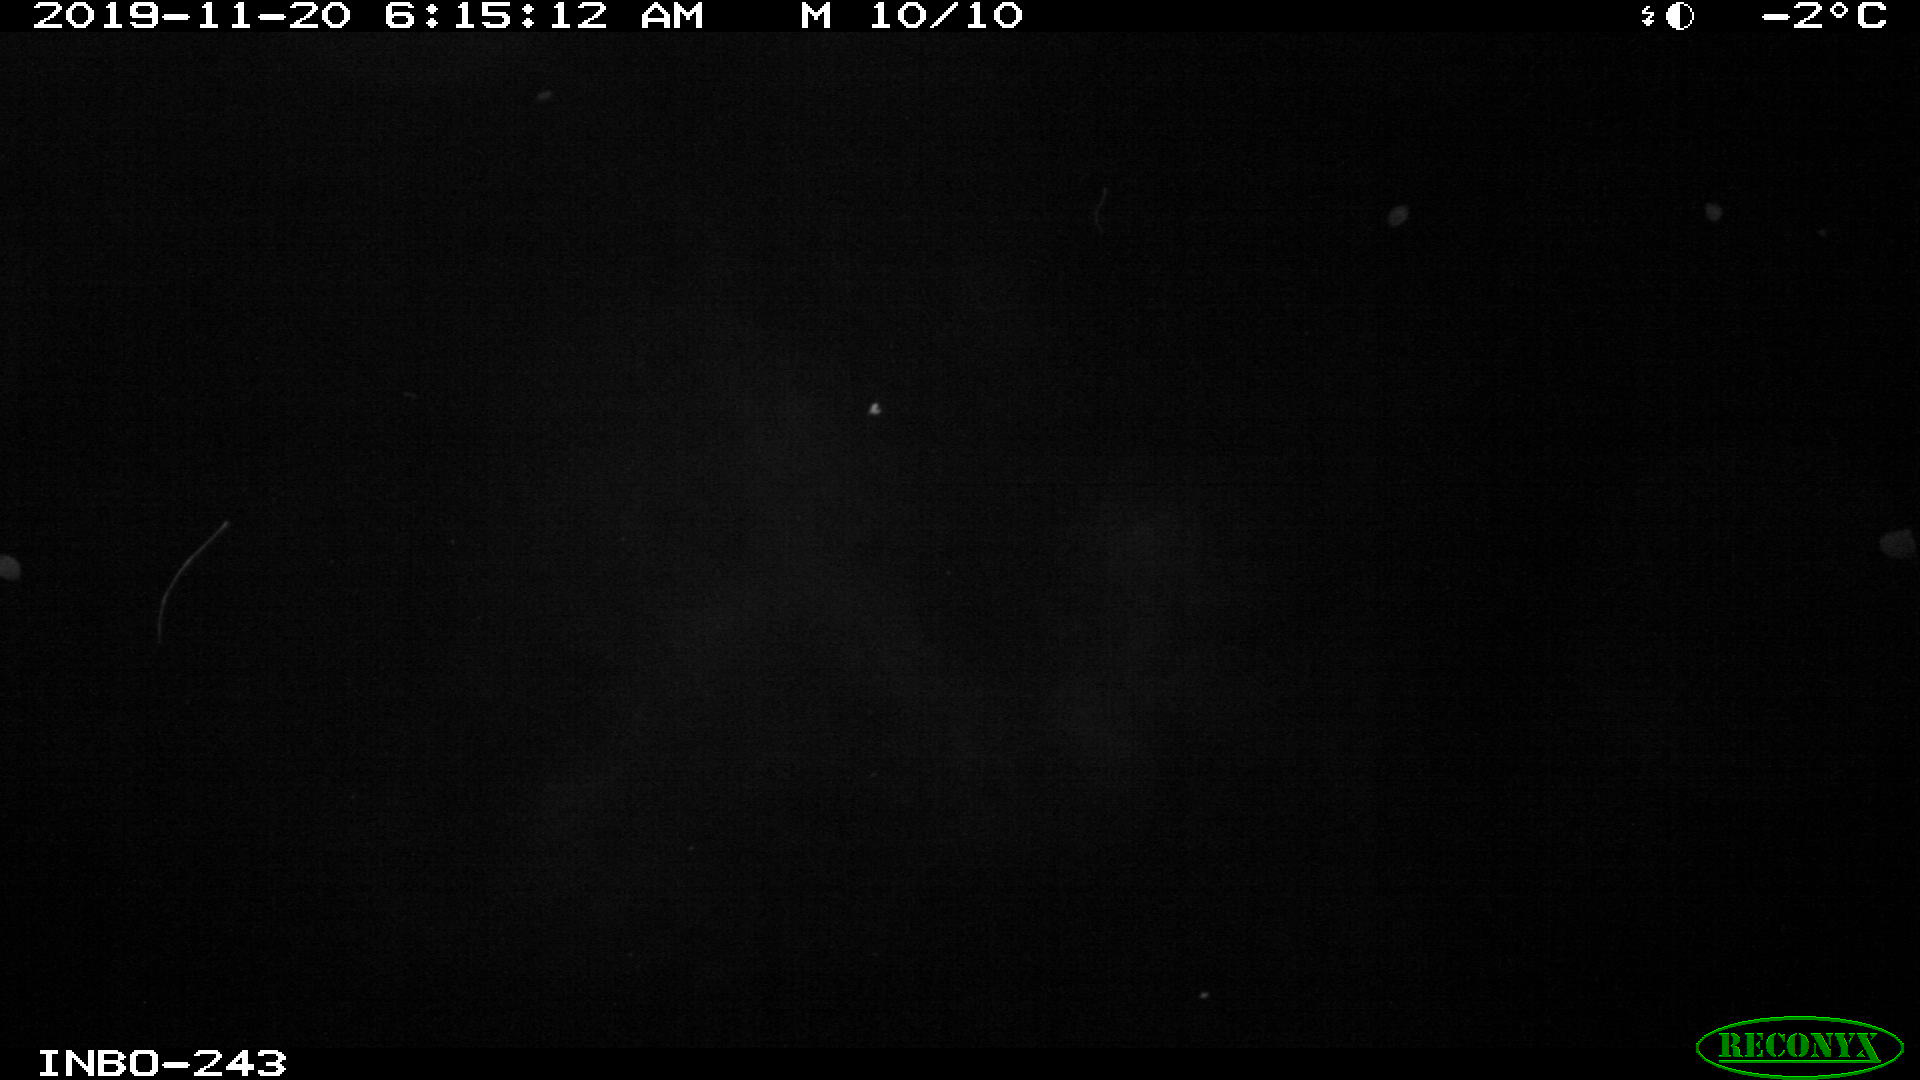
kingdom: Animalia
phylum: Chordata
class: Aves
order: Anseriformes
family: Anatidae
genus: Anas
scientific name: Anas platyrhynchos
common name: Mallard
